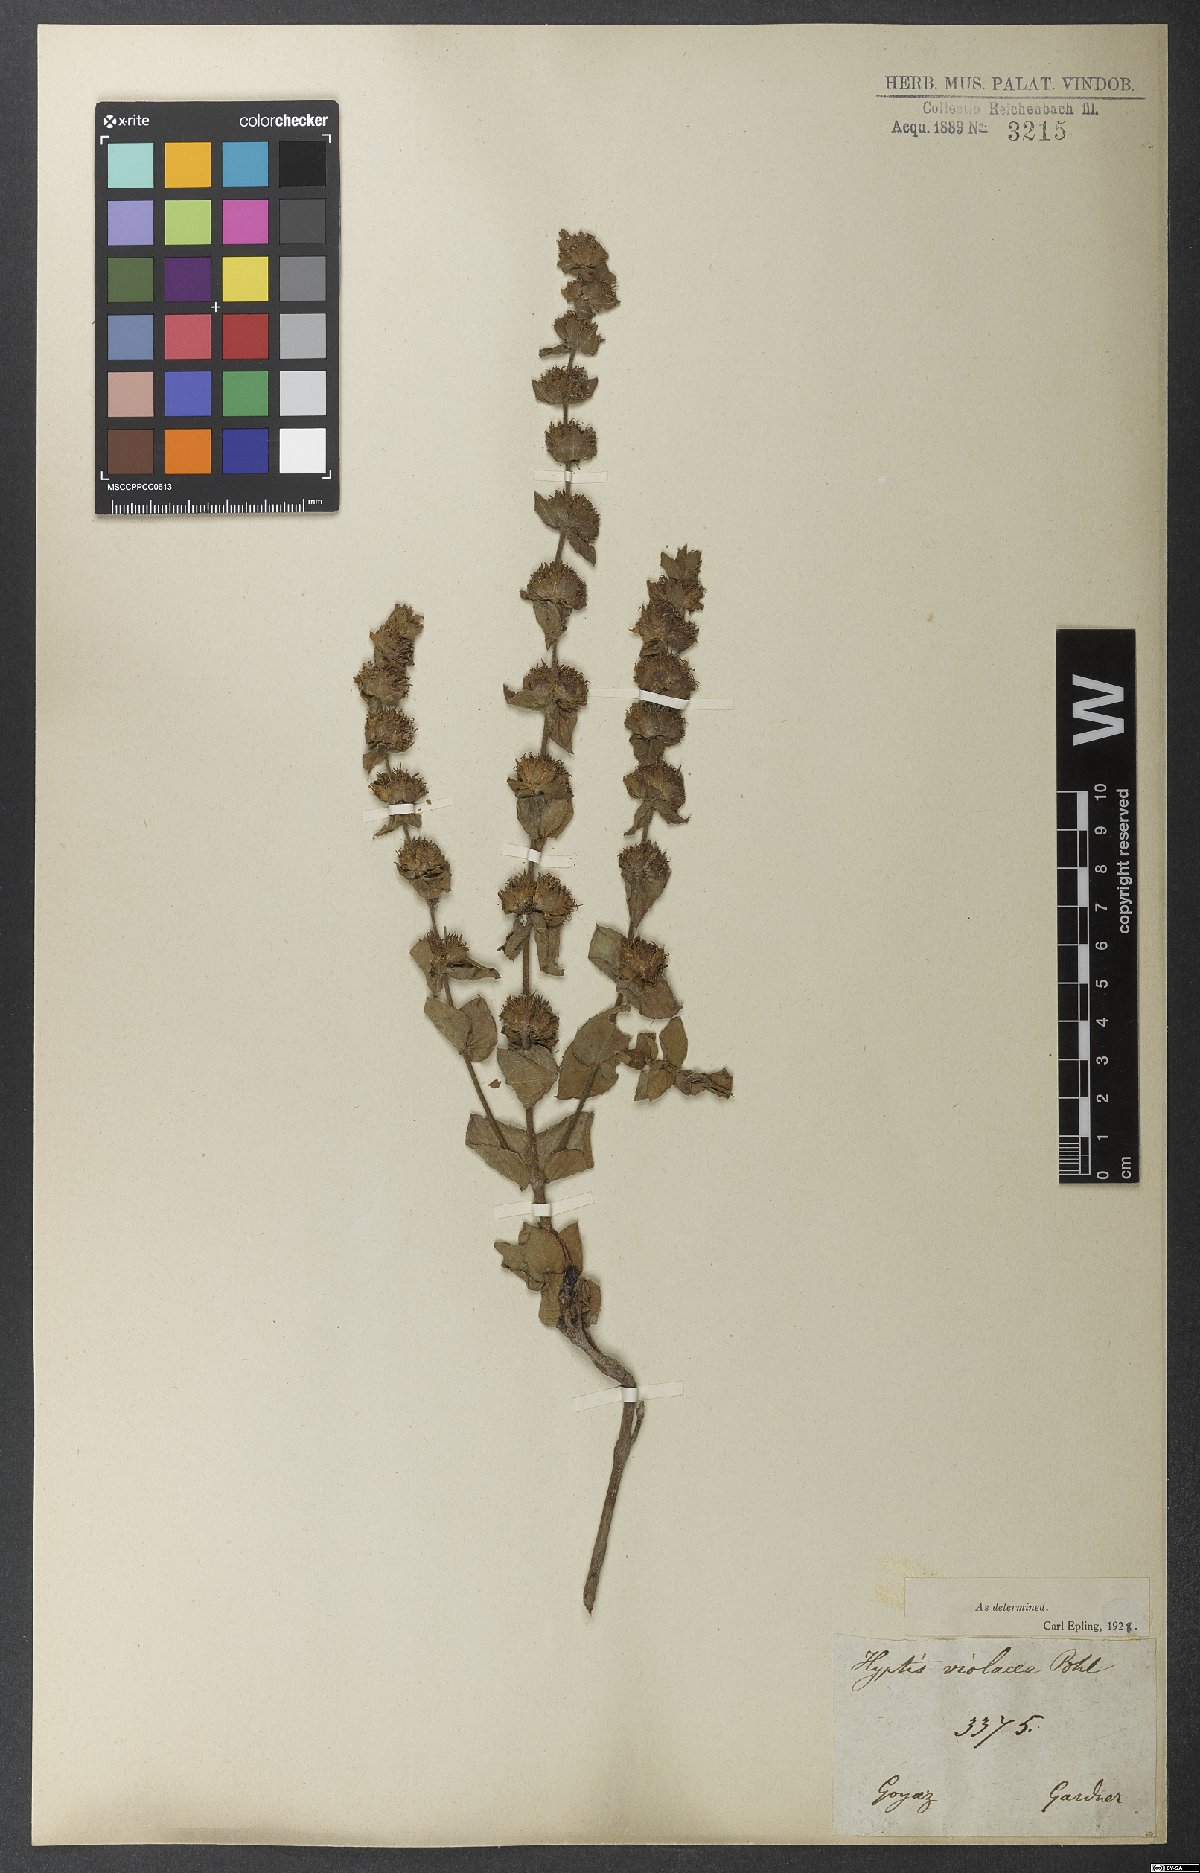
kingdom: Plantae
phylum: Tracheophyta
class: Magnoliopsida
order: Lamiales
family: Lamiaceae
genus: Cantinoa
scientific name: Cantinoa violacea
